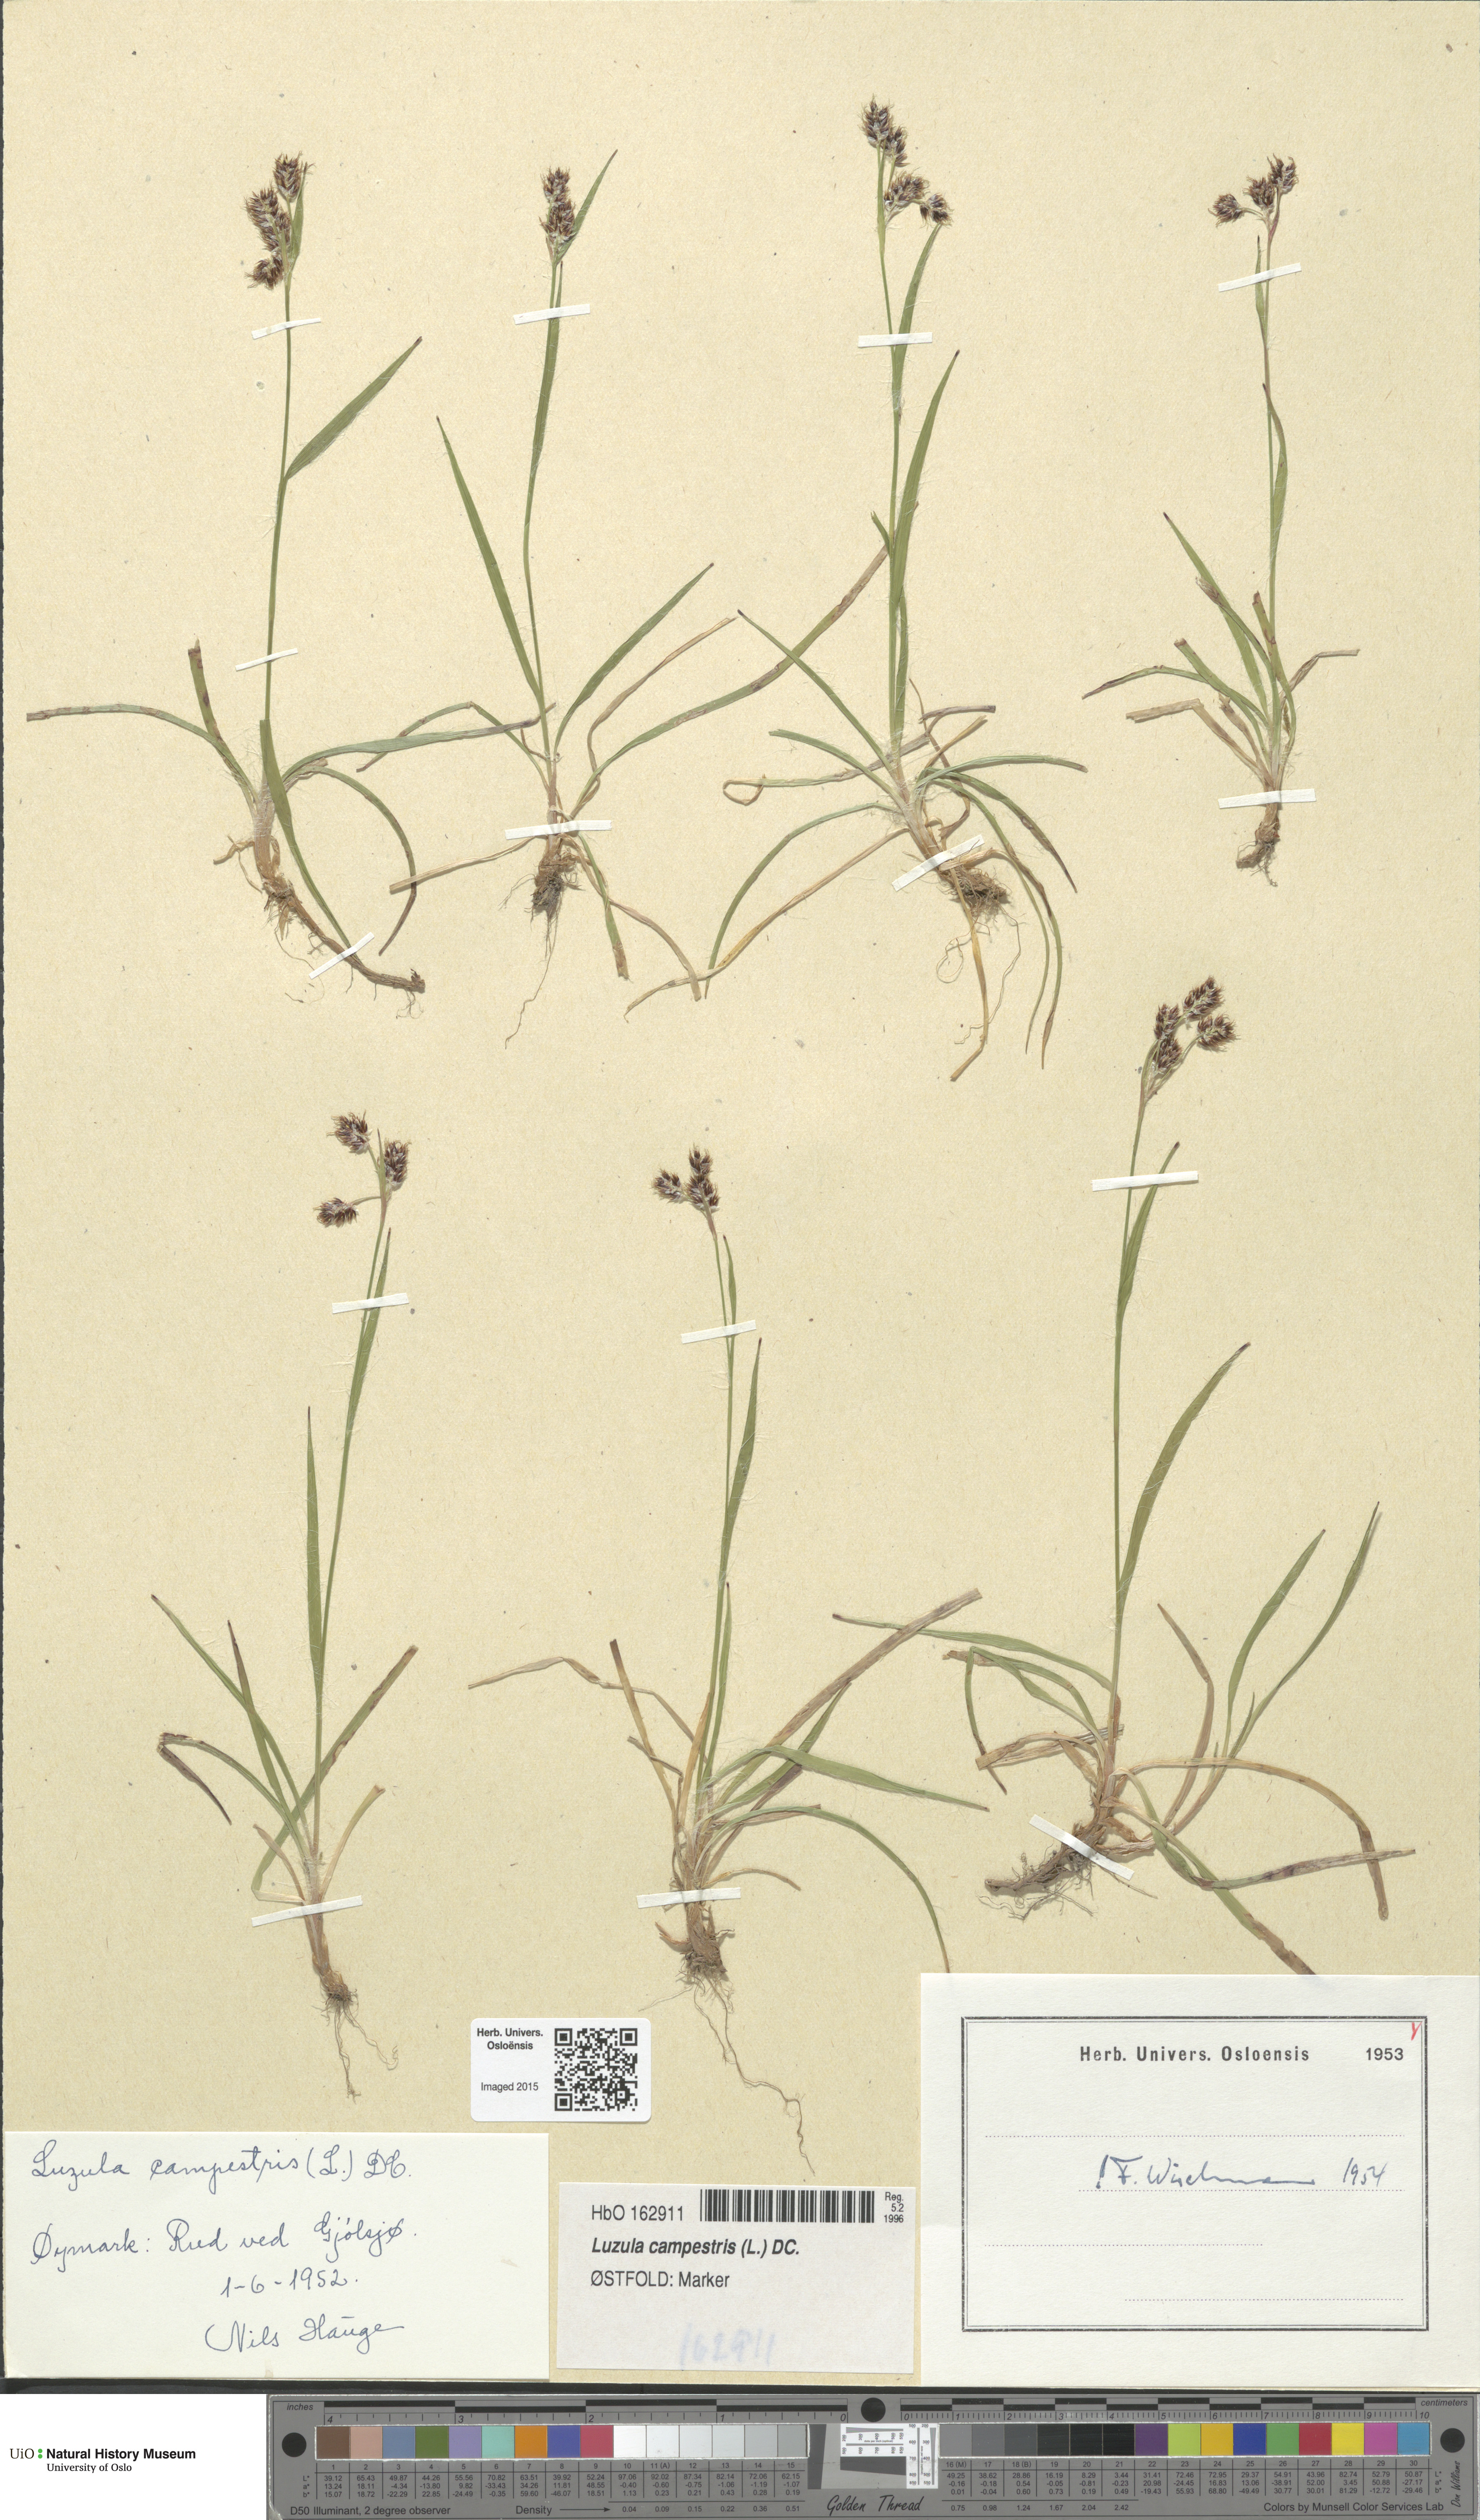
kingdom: Plantae
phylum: Tracheophyta
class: Liliopsida
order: Poales
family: Juncaceae
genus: Luzula
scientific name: Luzula campestris
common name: Field wood-rush
